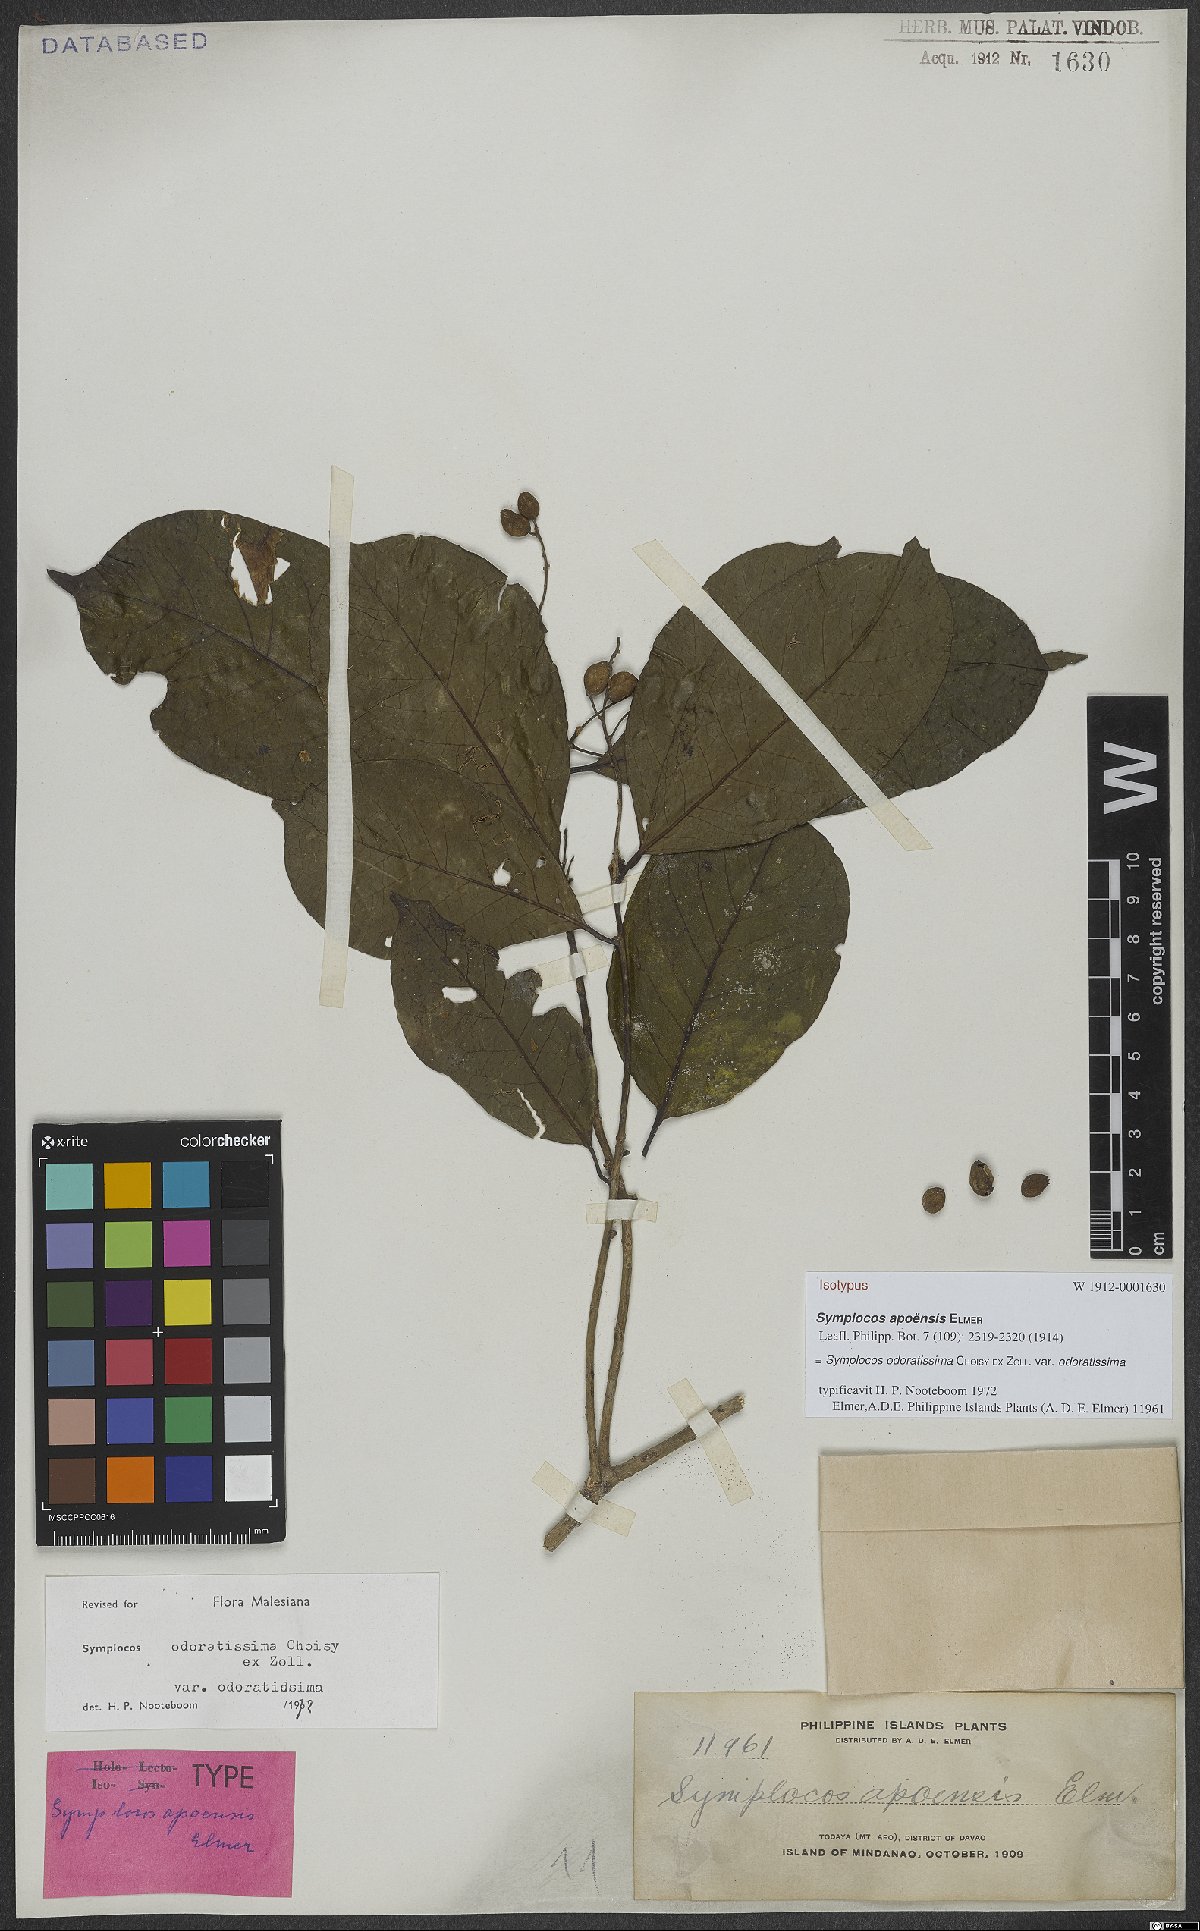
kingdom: Plantae
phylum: Tracheophyta
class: Magnoliopsida
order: Ericales
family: Symplocaceae
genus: Symplocos
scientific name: Symplocos odoratissima
